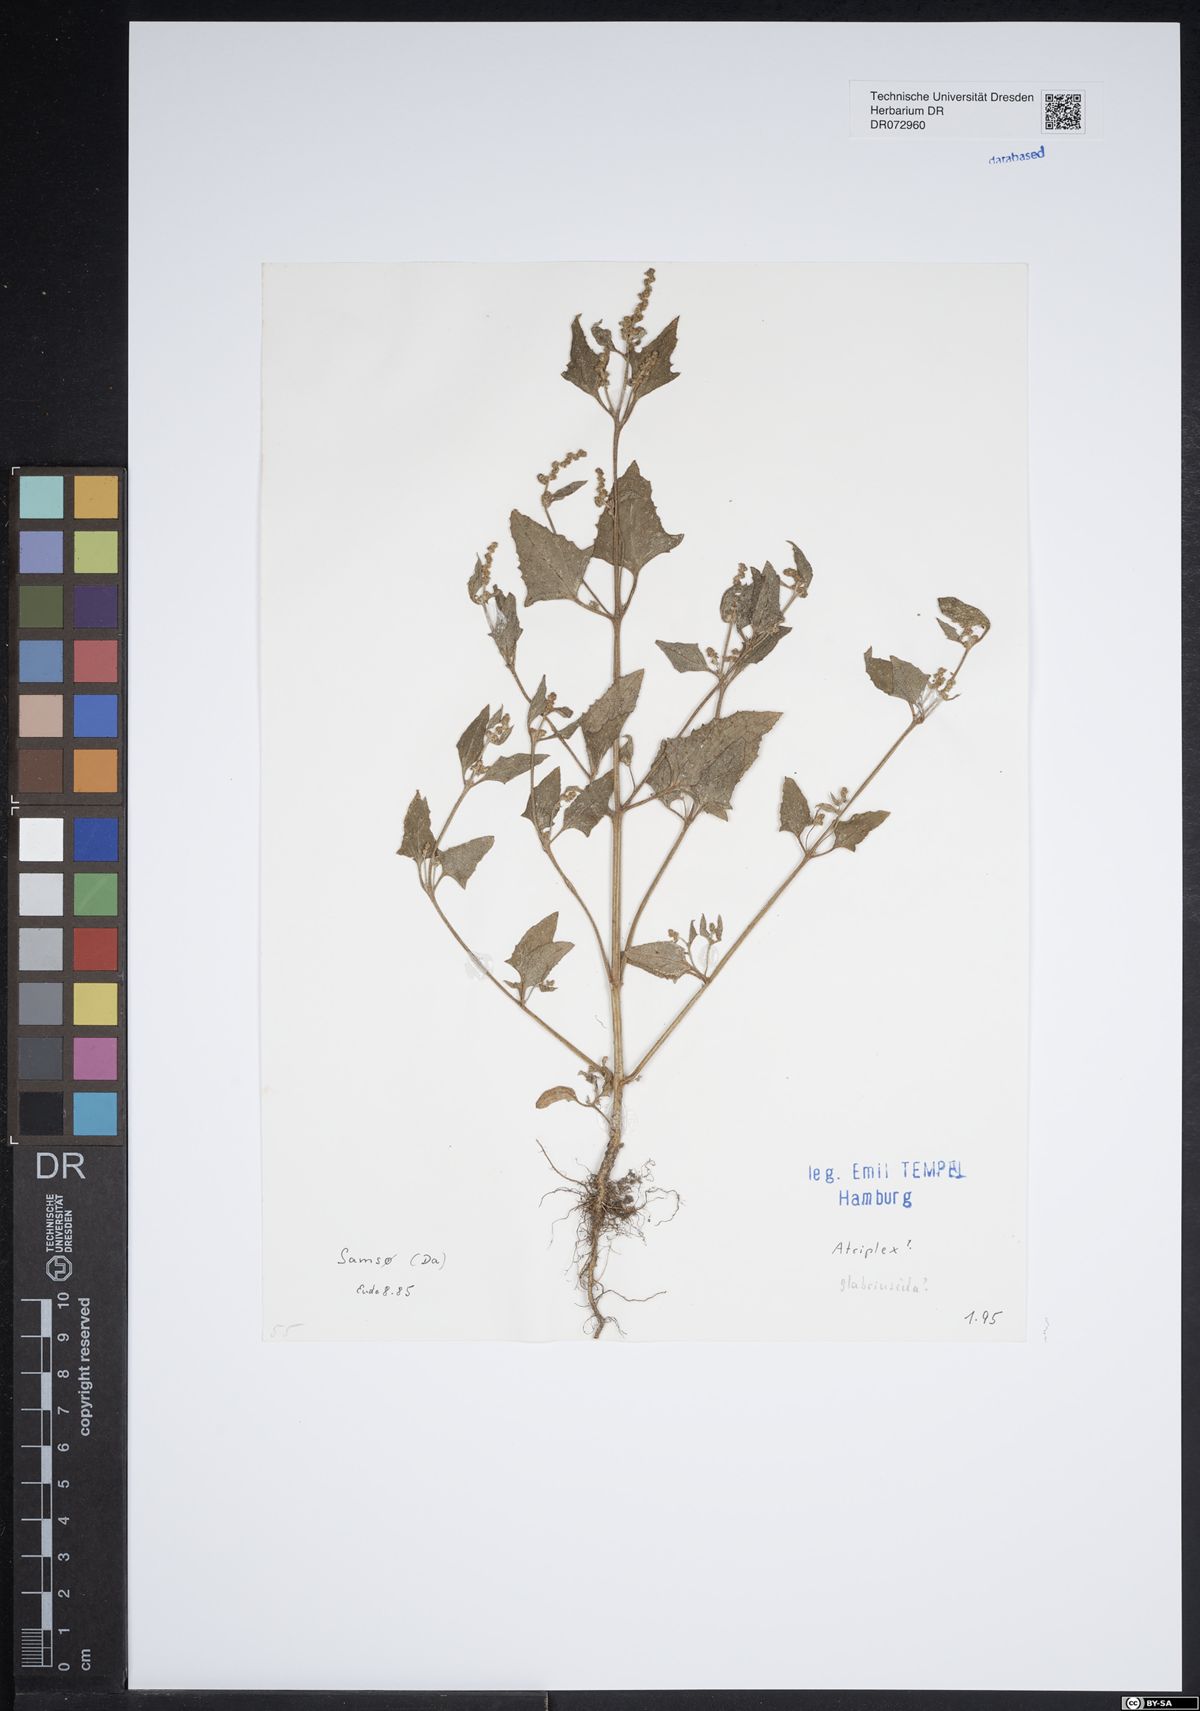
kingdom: Plantae
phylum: Tracheophyta
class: Magnoliopsida
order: Caryophyllales
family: Amaranthaceae
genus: Atriplex
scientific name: Atriplex glabriuscula
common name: Babington's orache
